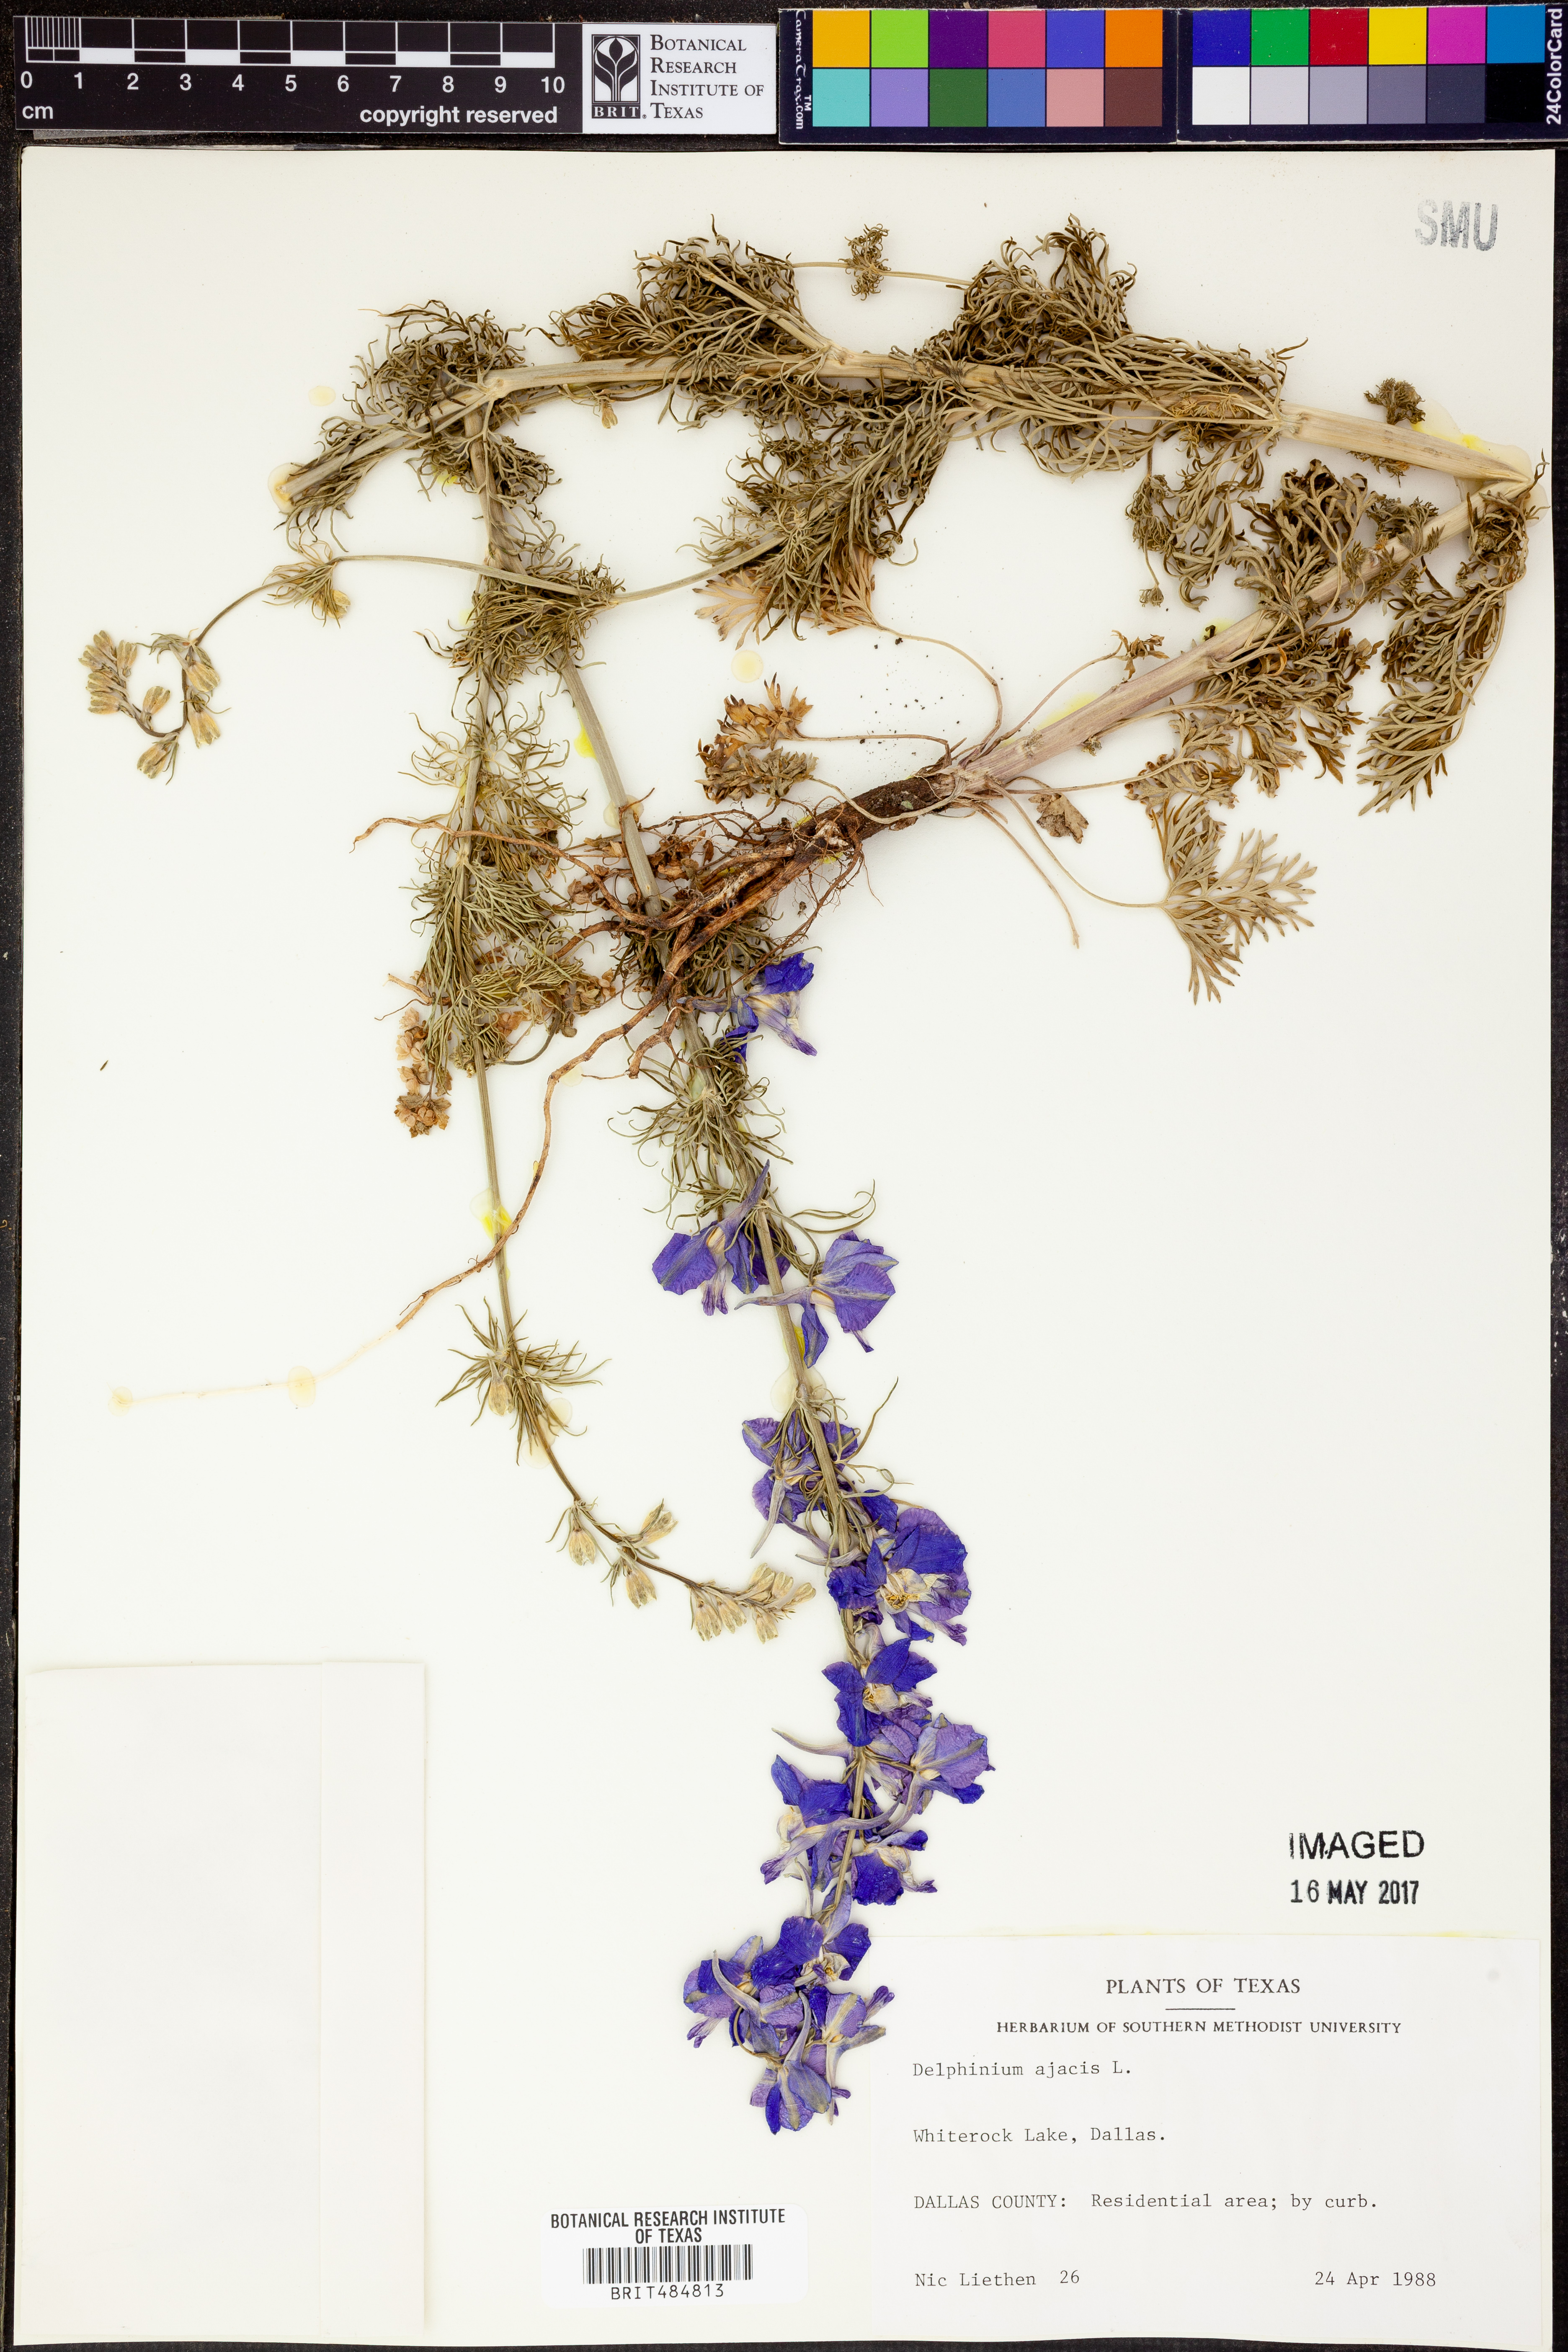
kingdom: Plantae
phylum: Tracheophyta
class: Magnoliopsida
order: Ranunculales
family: Ranunculaceae
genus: Delphinium
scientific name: Delphinium ajacis
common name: Doubtful knight's-spur
